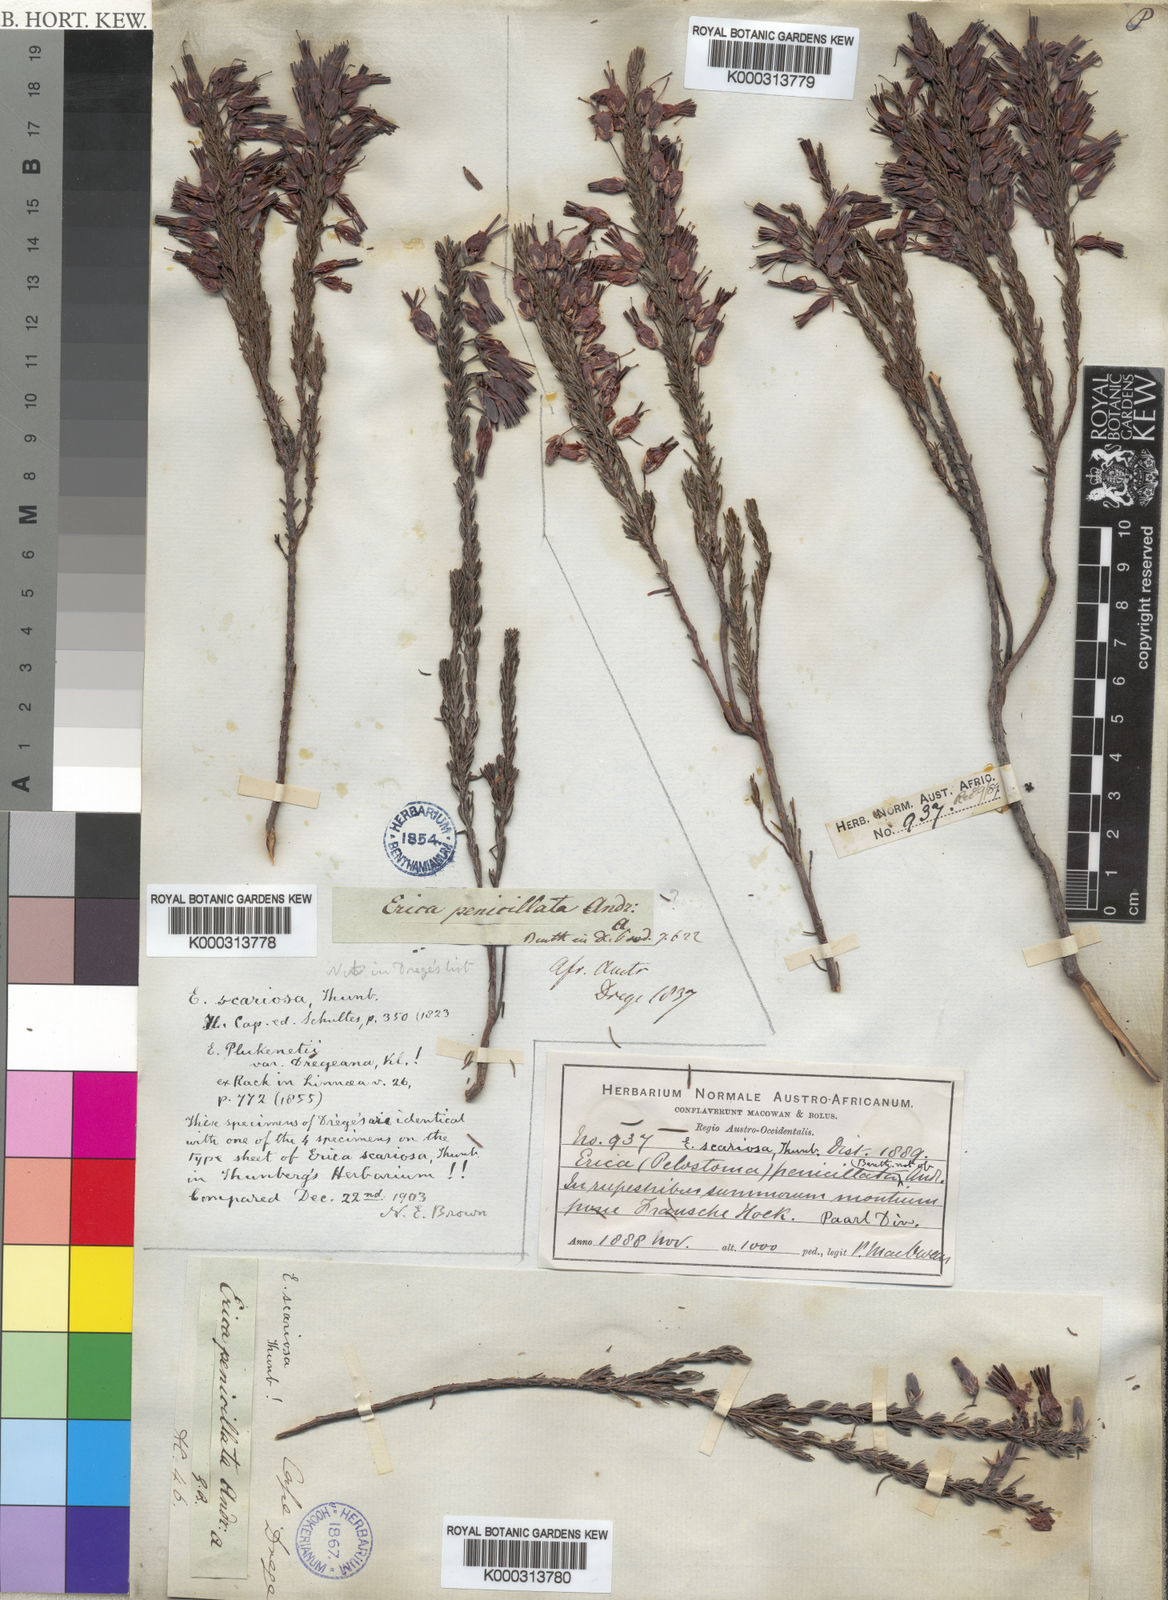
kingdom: Plantae
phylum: Tracheophyta
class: Magnoliopsida
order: Ericales
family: Ericaceae
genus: Erica
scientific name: Erica plukenetii
